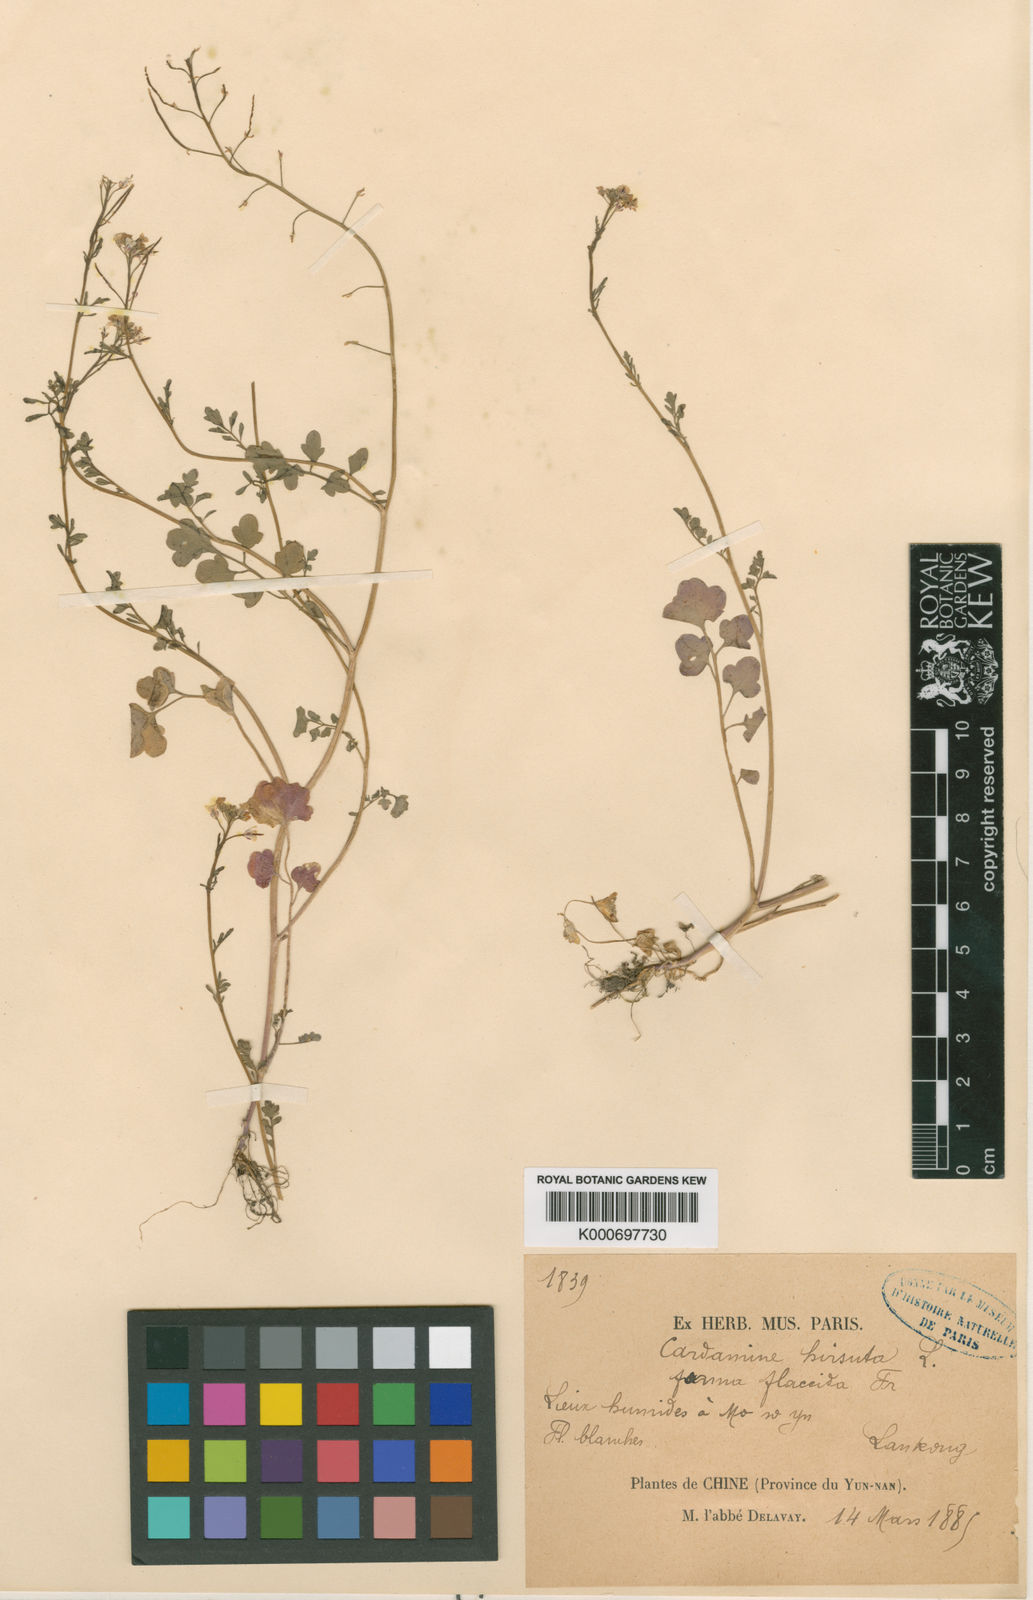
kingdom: Plantae
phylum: Tracheophyta
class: Magnoliopsida
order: Brassicales
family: Brassicaceae
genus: Cardamine
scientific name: Cardamine hirsuta
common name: Hairy bittercress
